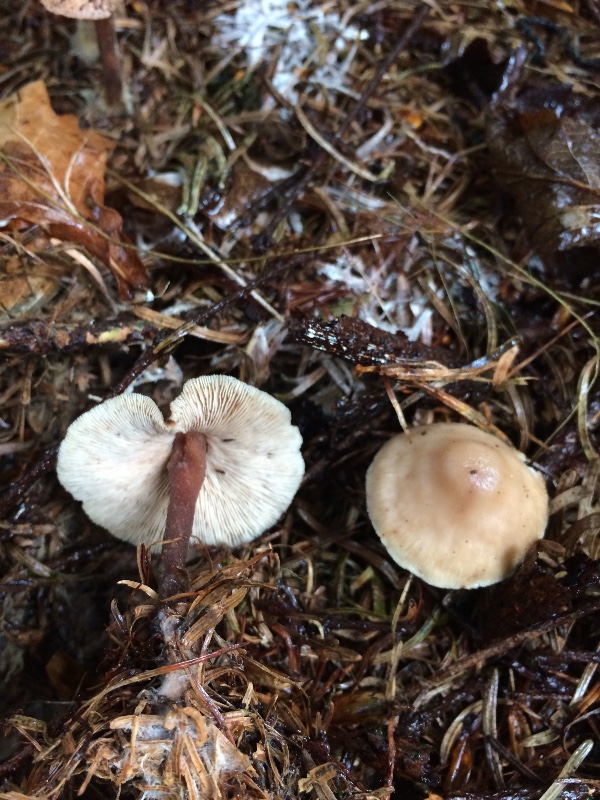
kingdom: Fungi
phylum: Basidiomycota
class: Agaricomycetes
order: Agaricales
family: Omphalotaceae
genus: Collybiopsis
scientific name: Collybiopsis confluens
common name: knippe-fladhat
